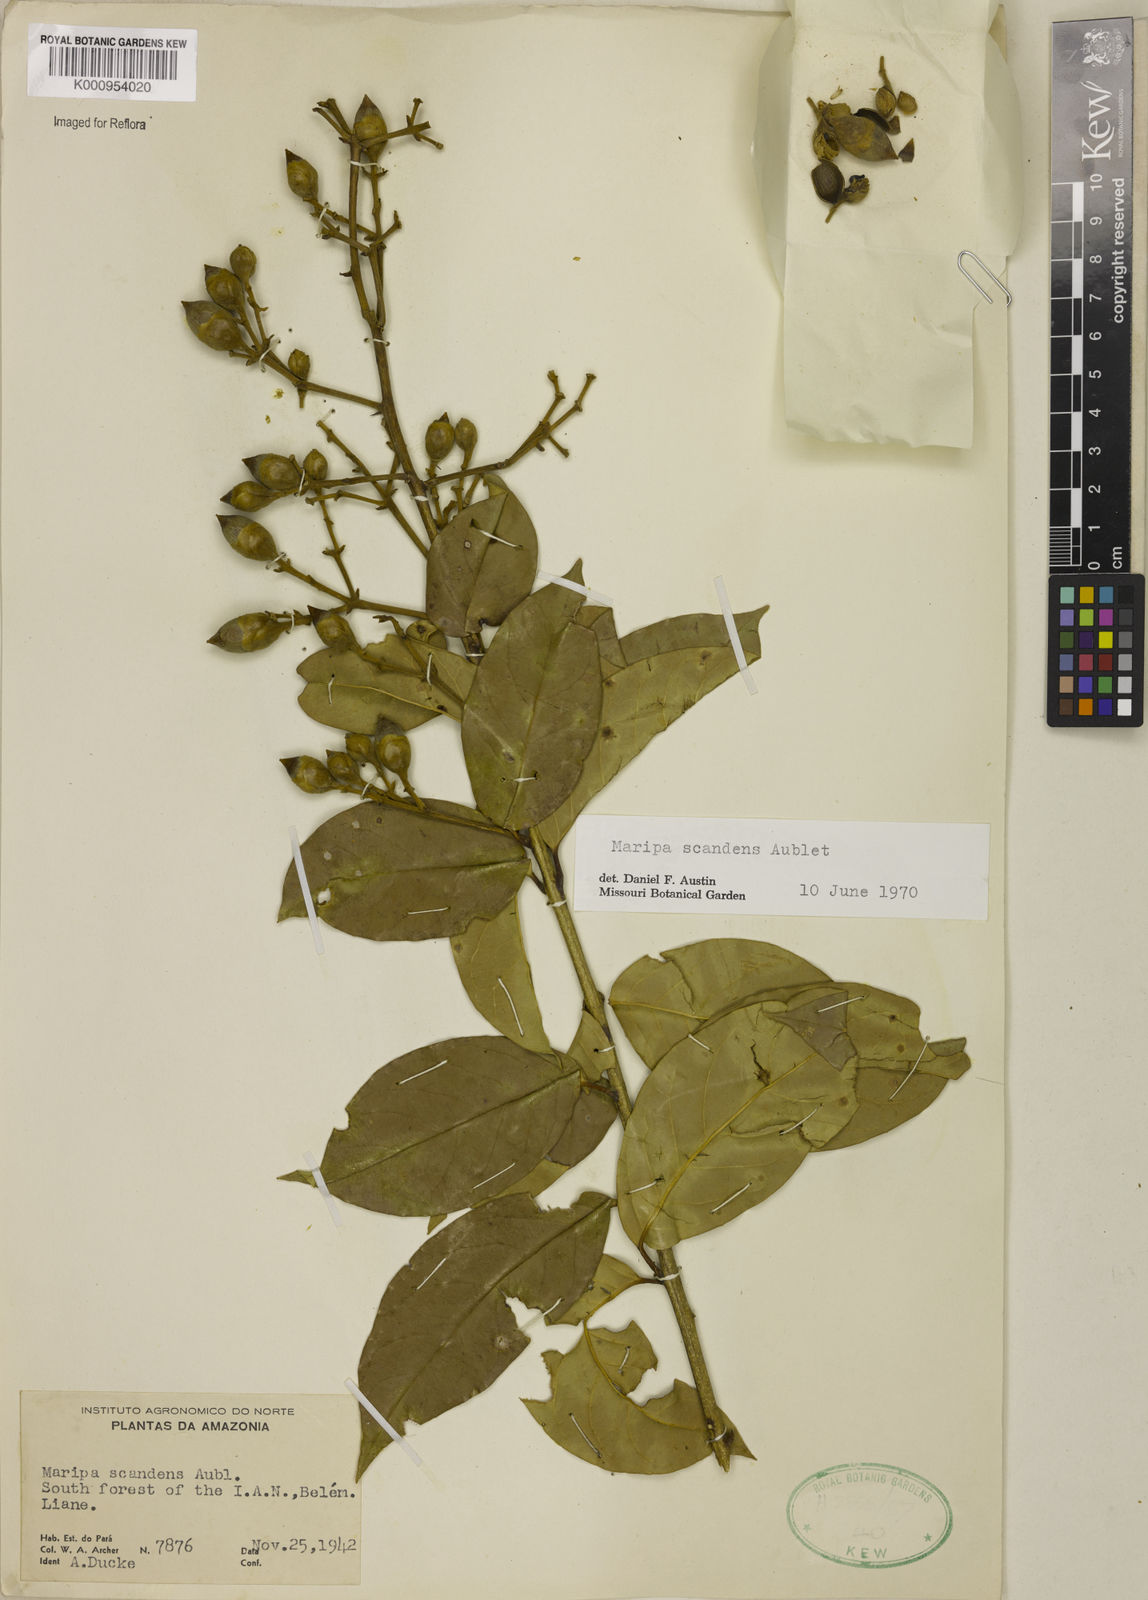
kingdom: Plantae
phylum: Tracheophyta
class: Magnoliopsida
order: Solanales
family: Convolvulaceae
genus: Maripa
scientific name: Maripa scandens
